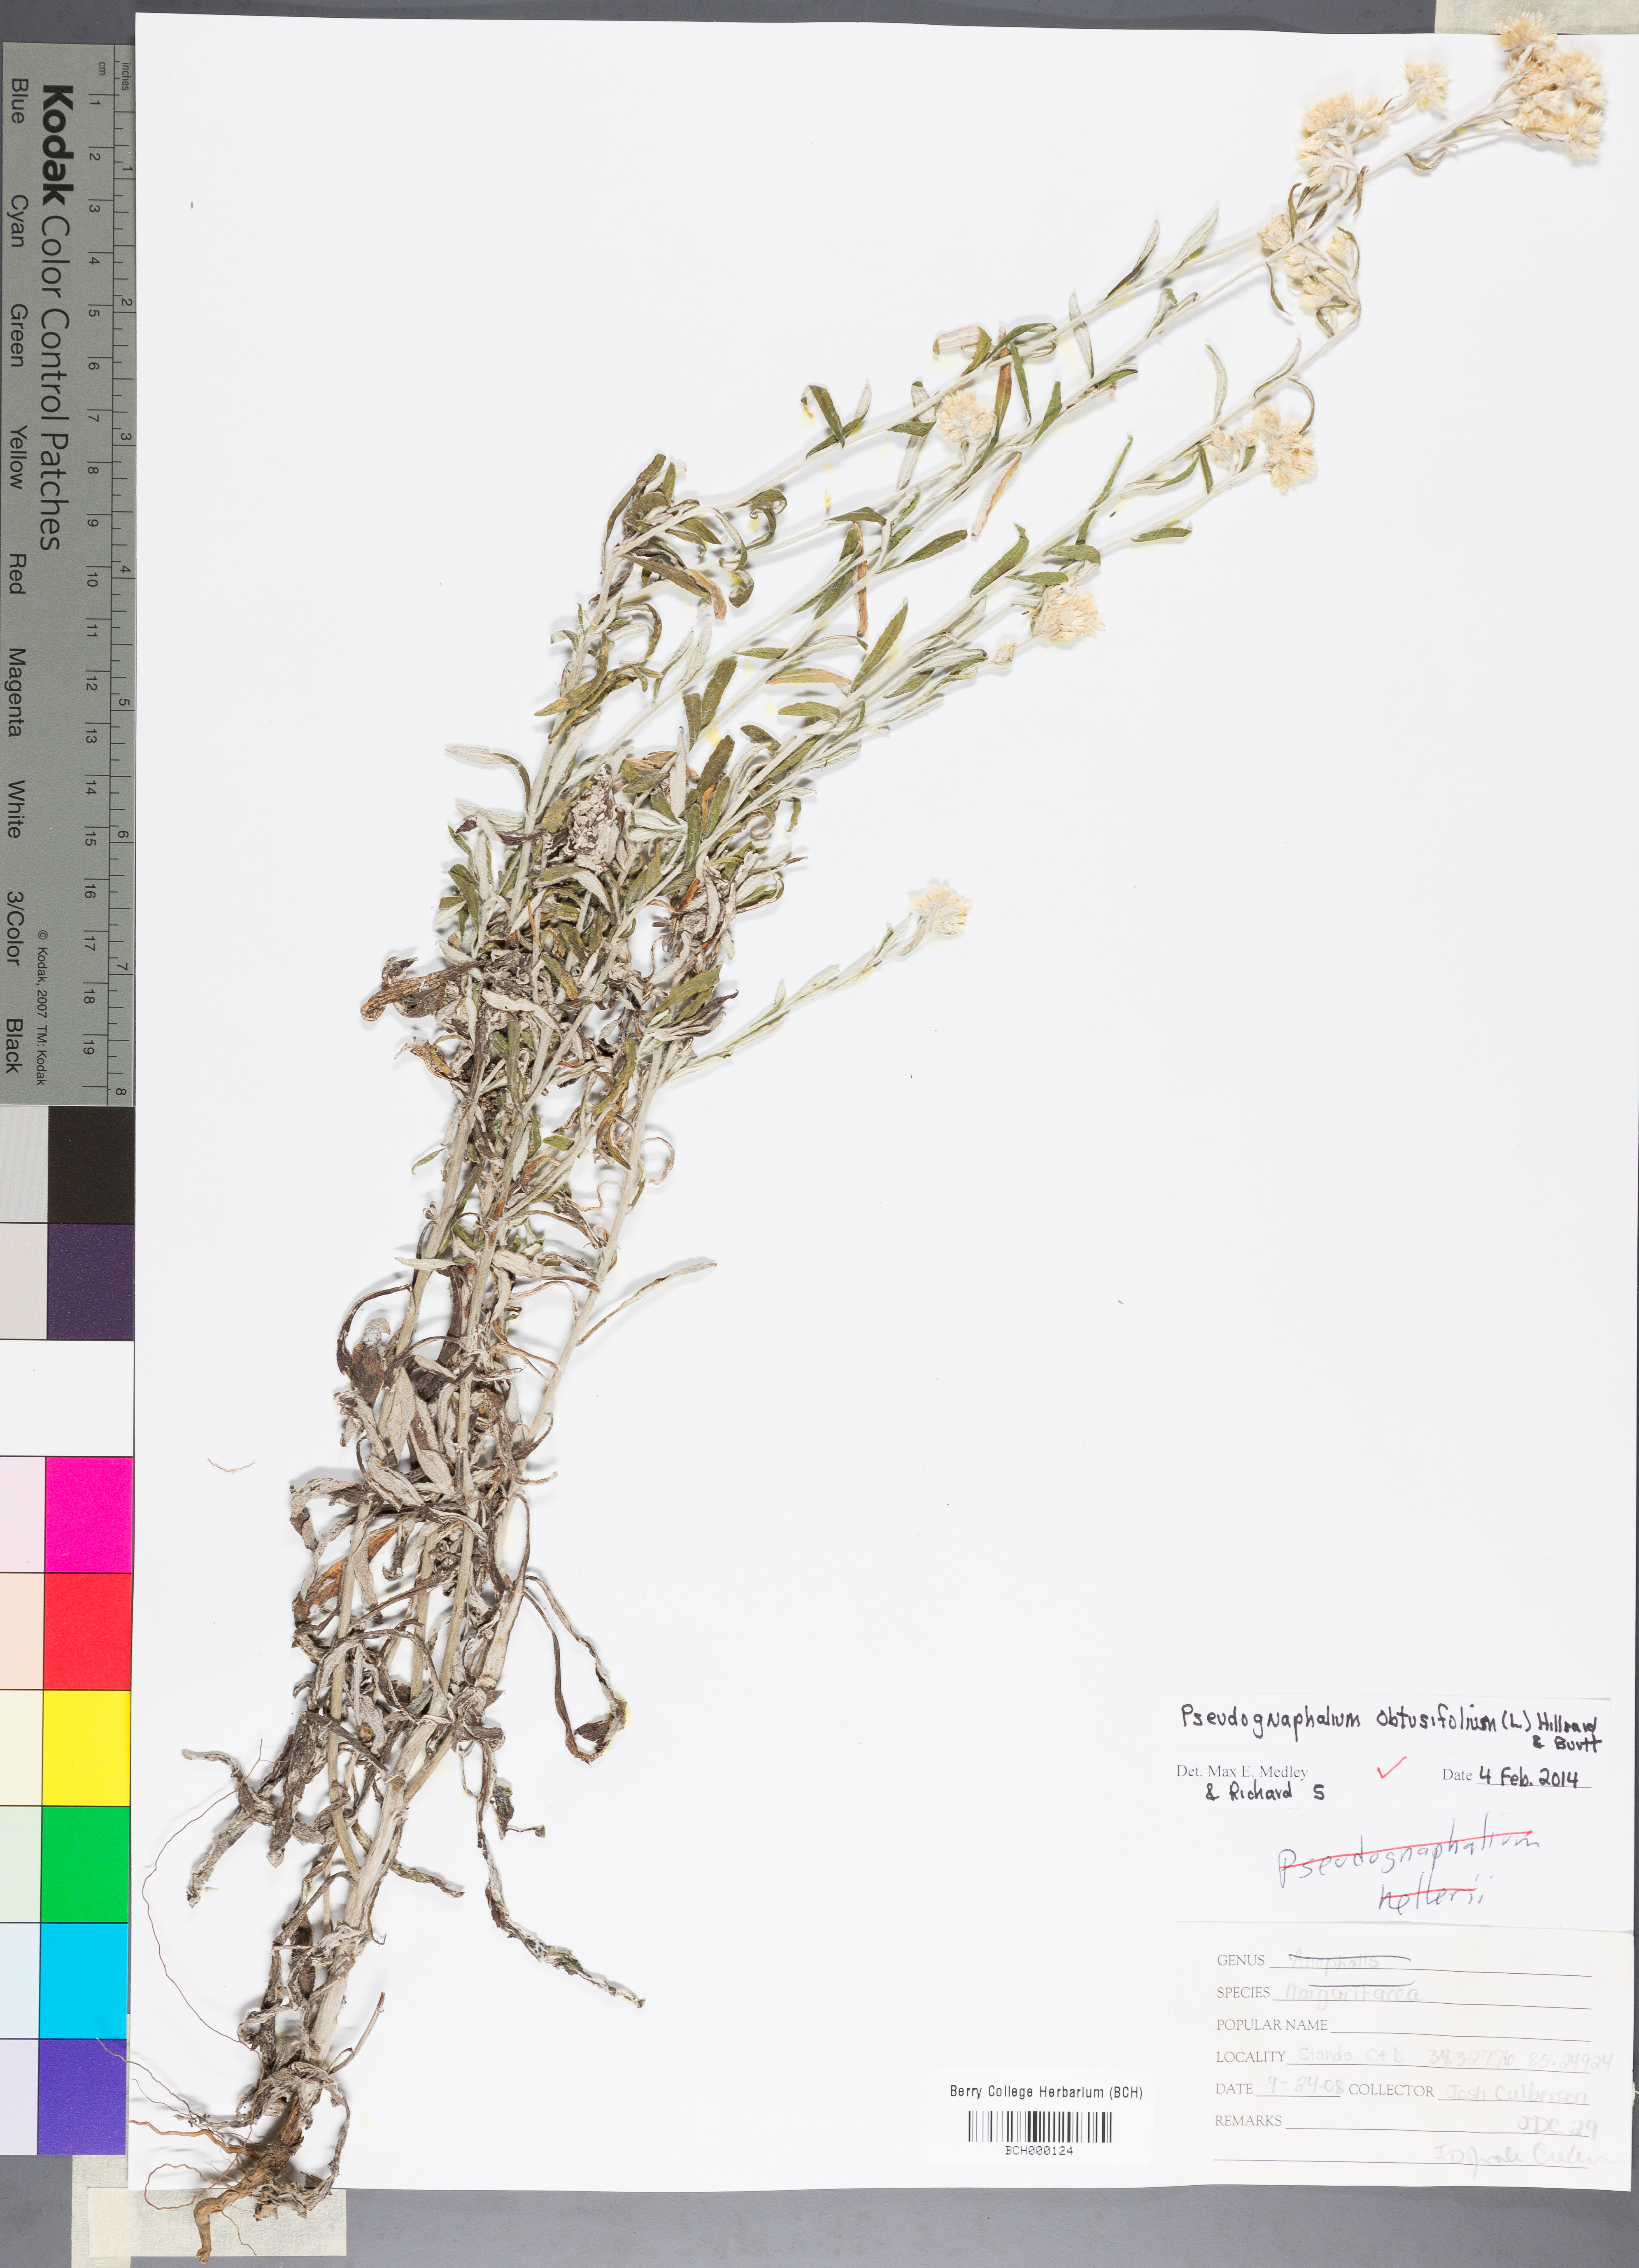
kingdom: Plantae
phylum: Tracheophyta
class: Magnoliopsida
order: Asterales
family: Asteraceae
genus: Pseudognaphalium
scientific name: Pseudognaphalium obtusifolium
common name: Eastern rabbit-tobacco
